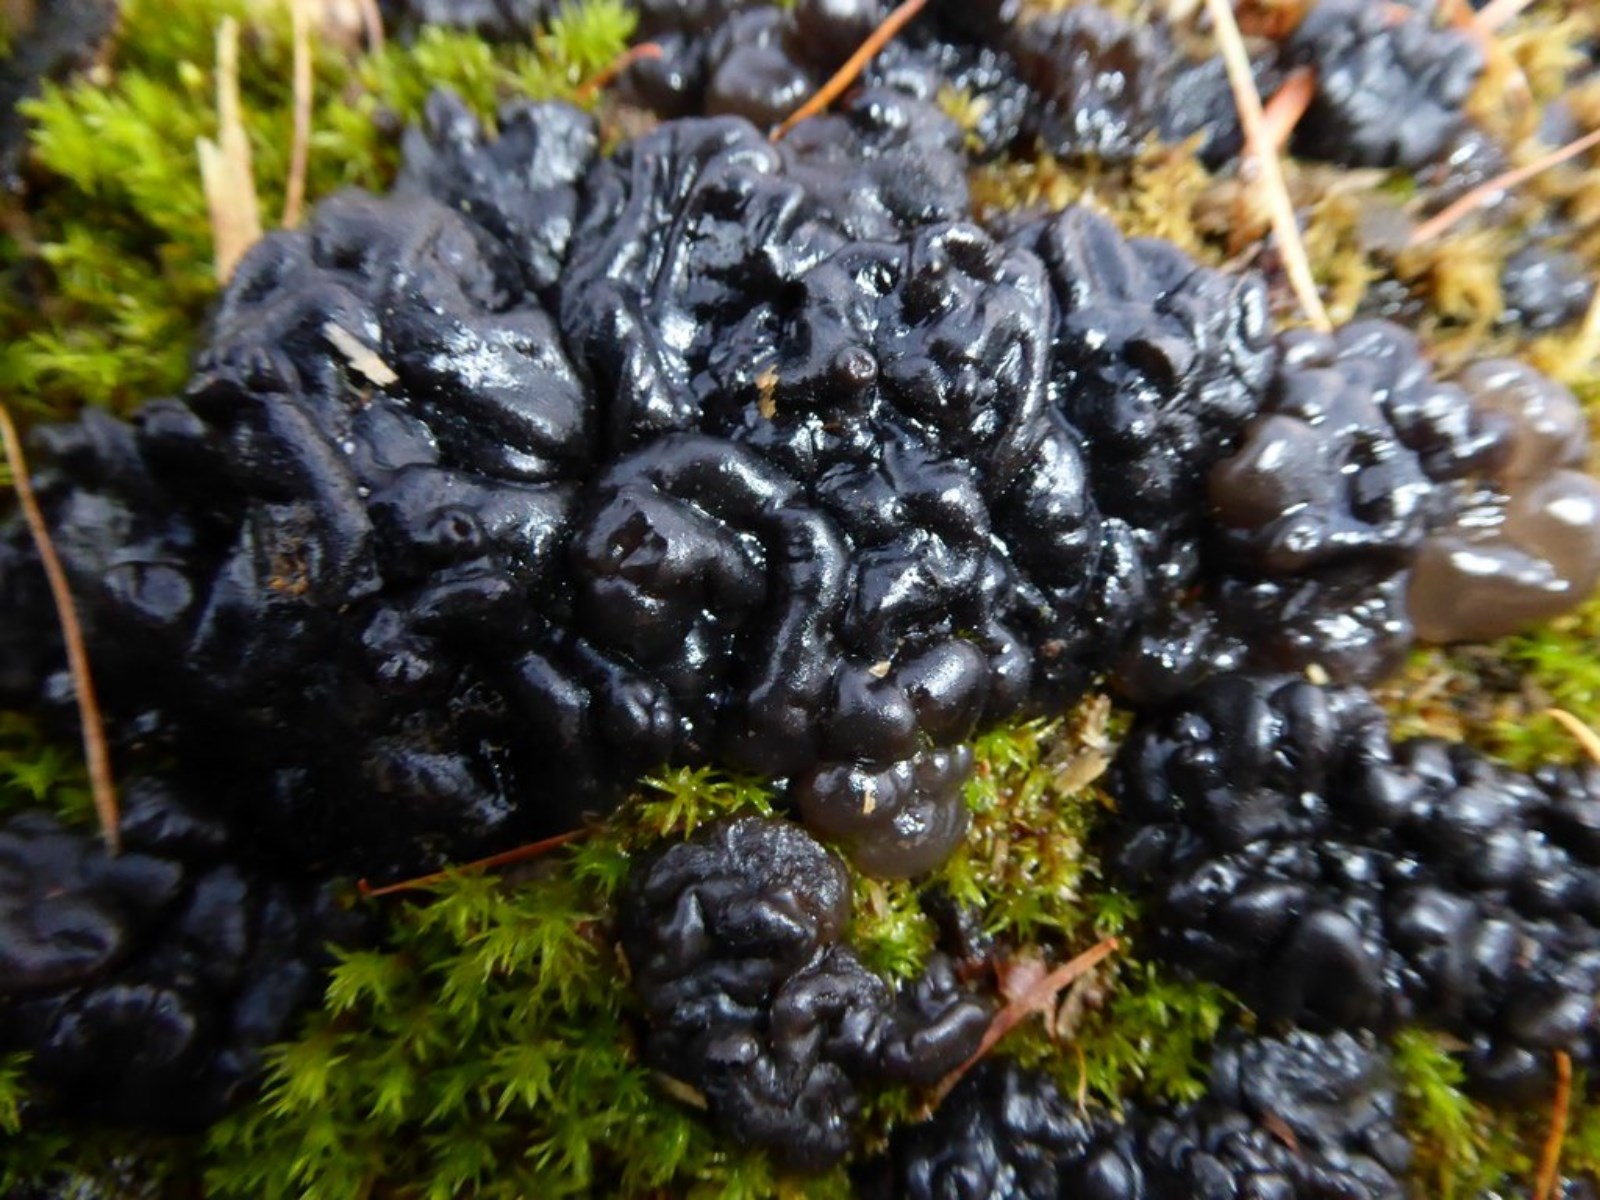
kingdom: Fungi
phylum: Basidiomycota
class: Agaricomycetes
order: Auriculariales
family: Auriculariaceae
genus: Exidia
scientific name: Exidia nigricans
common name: almindelig bævretop
